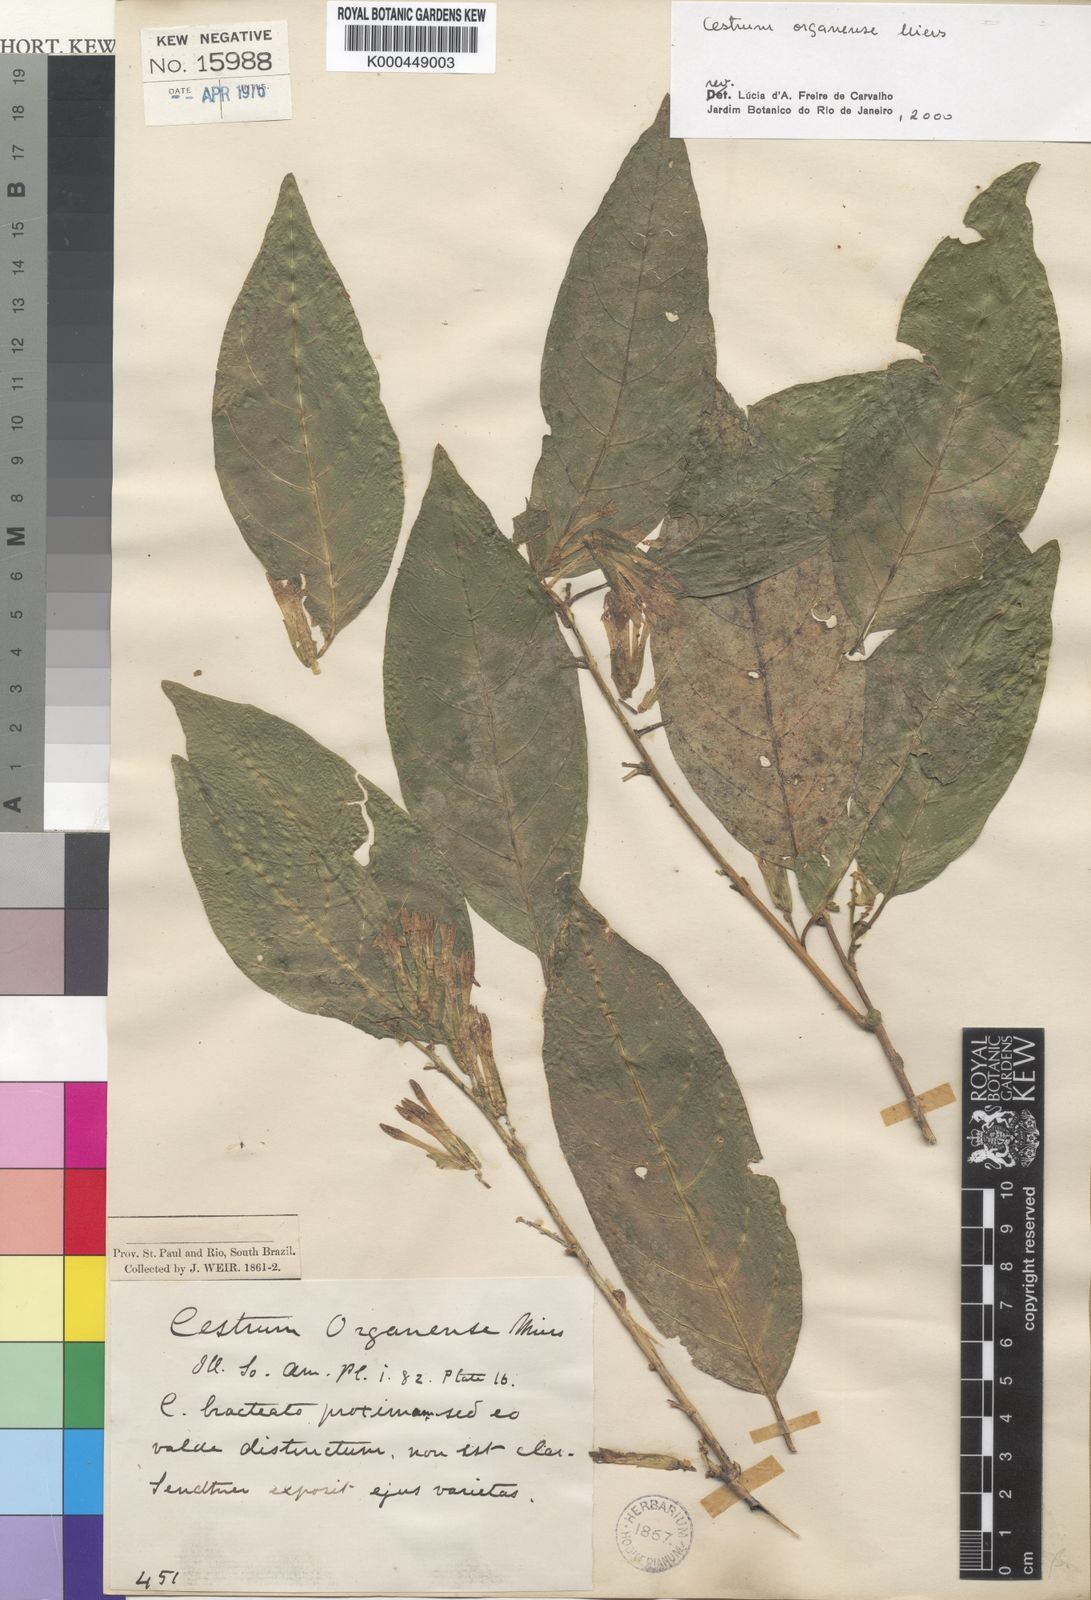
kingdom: Plantae
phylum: Tracheophyta
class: Magnoliopsida
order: Solanales
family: Solanaceae
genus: Cestrum
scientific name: Cestrum bracteatum
